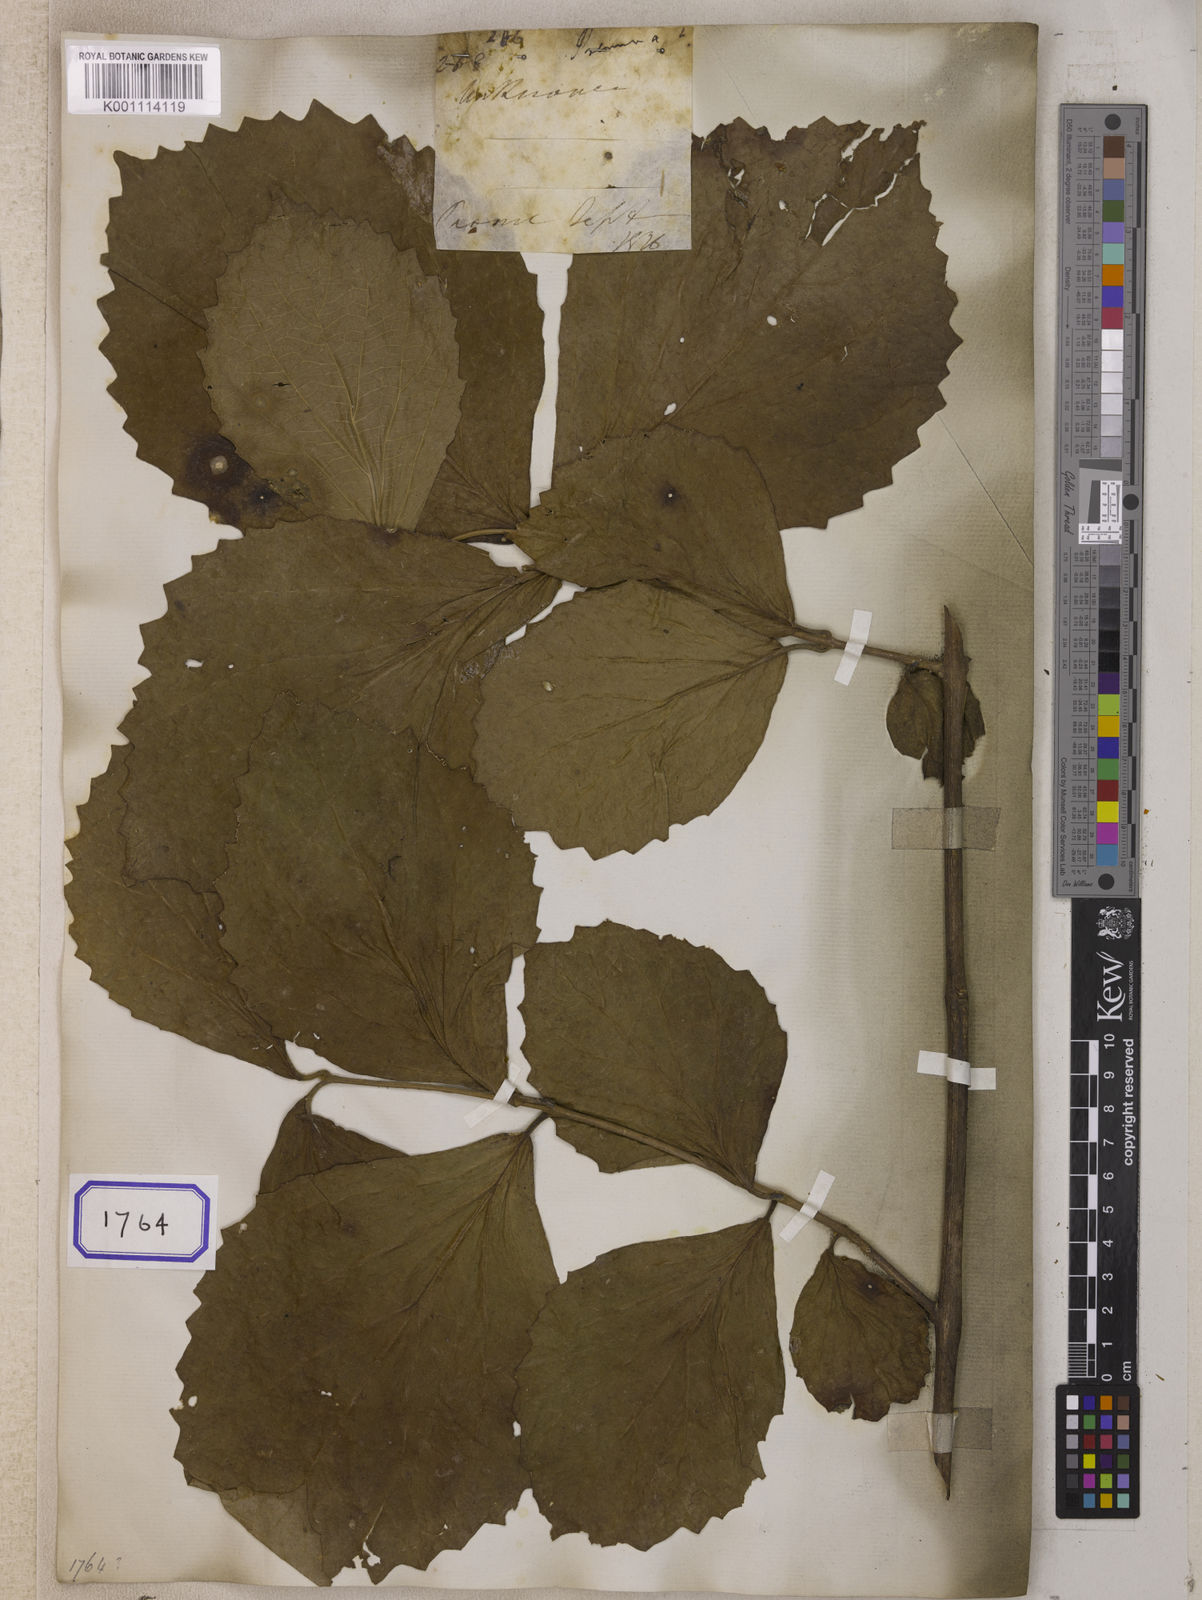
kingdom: Plantae
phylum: Tracheophyta
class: Magnoliopsida
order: Lamiales
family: Lamiaceae
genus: Premna
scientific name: Premna
